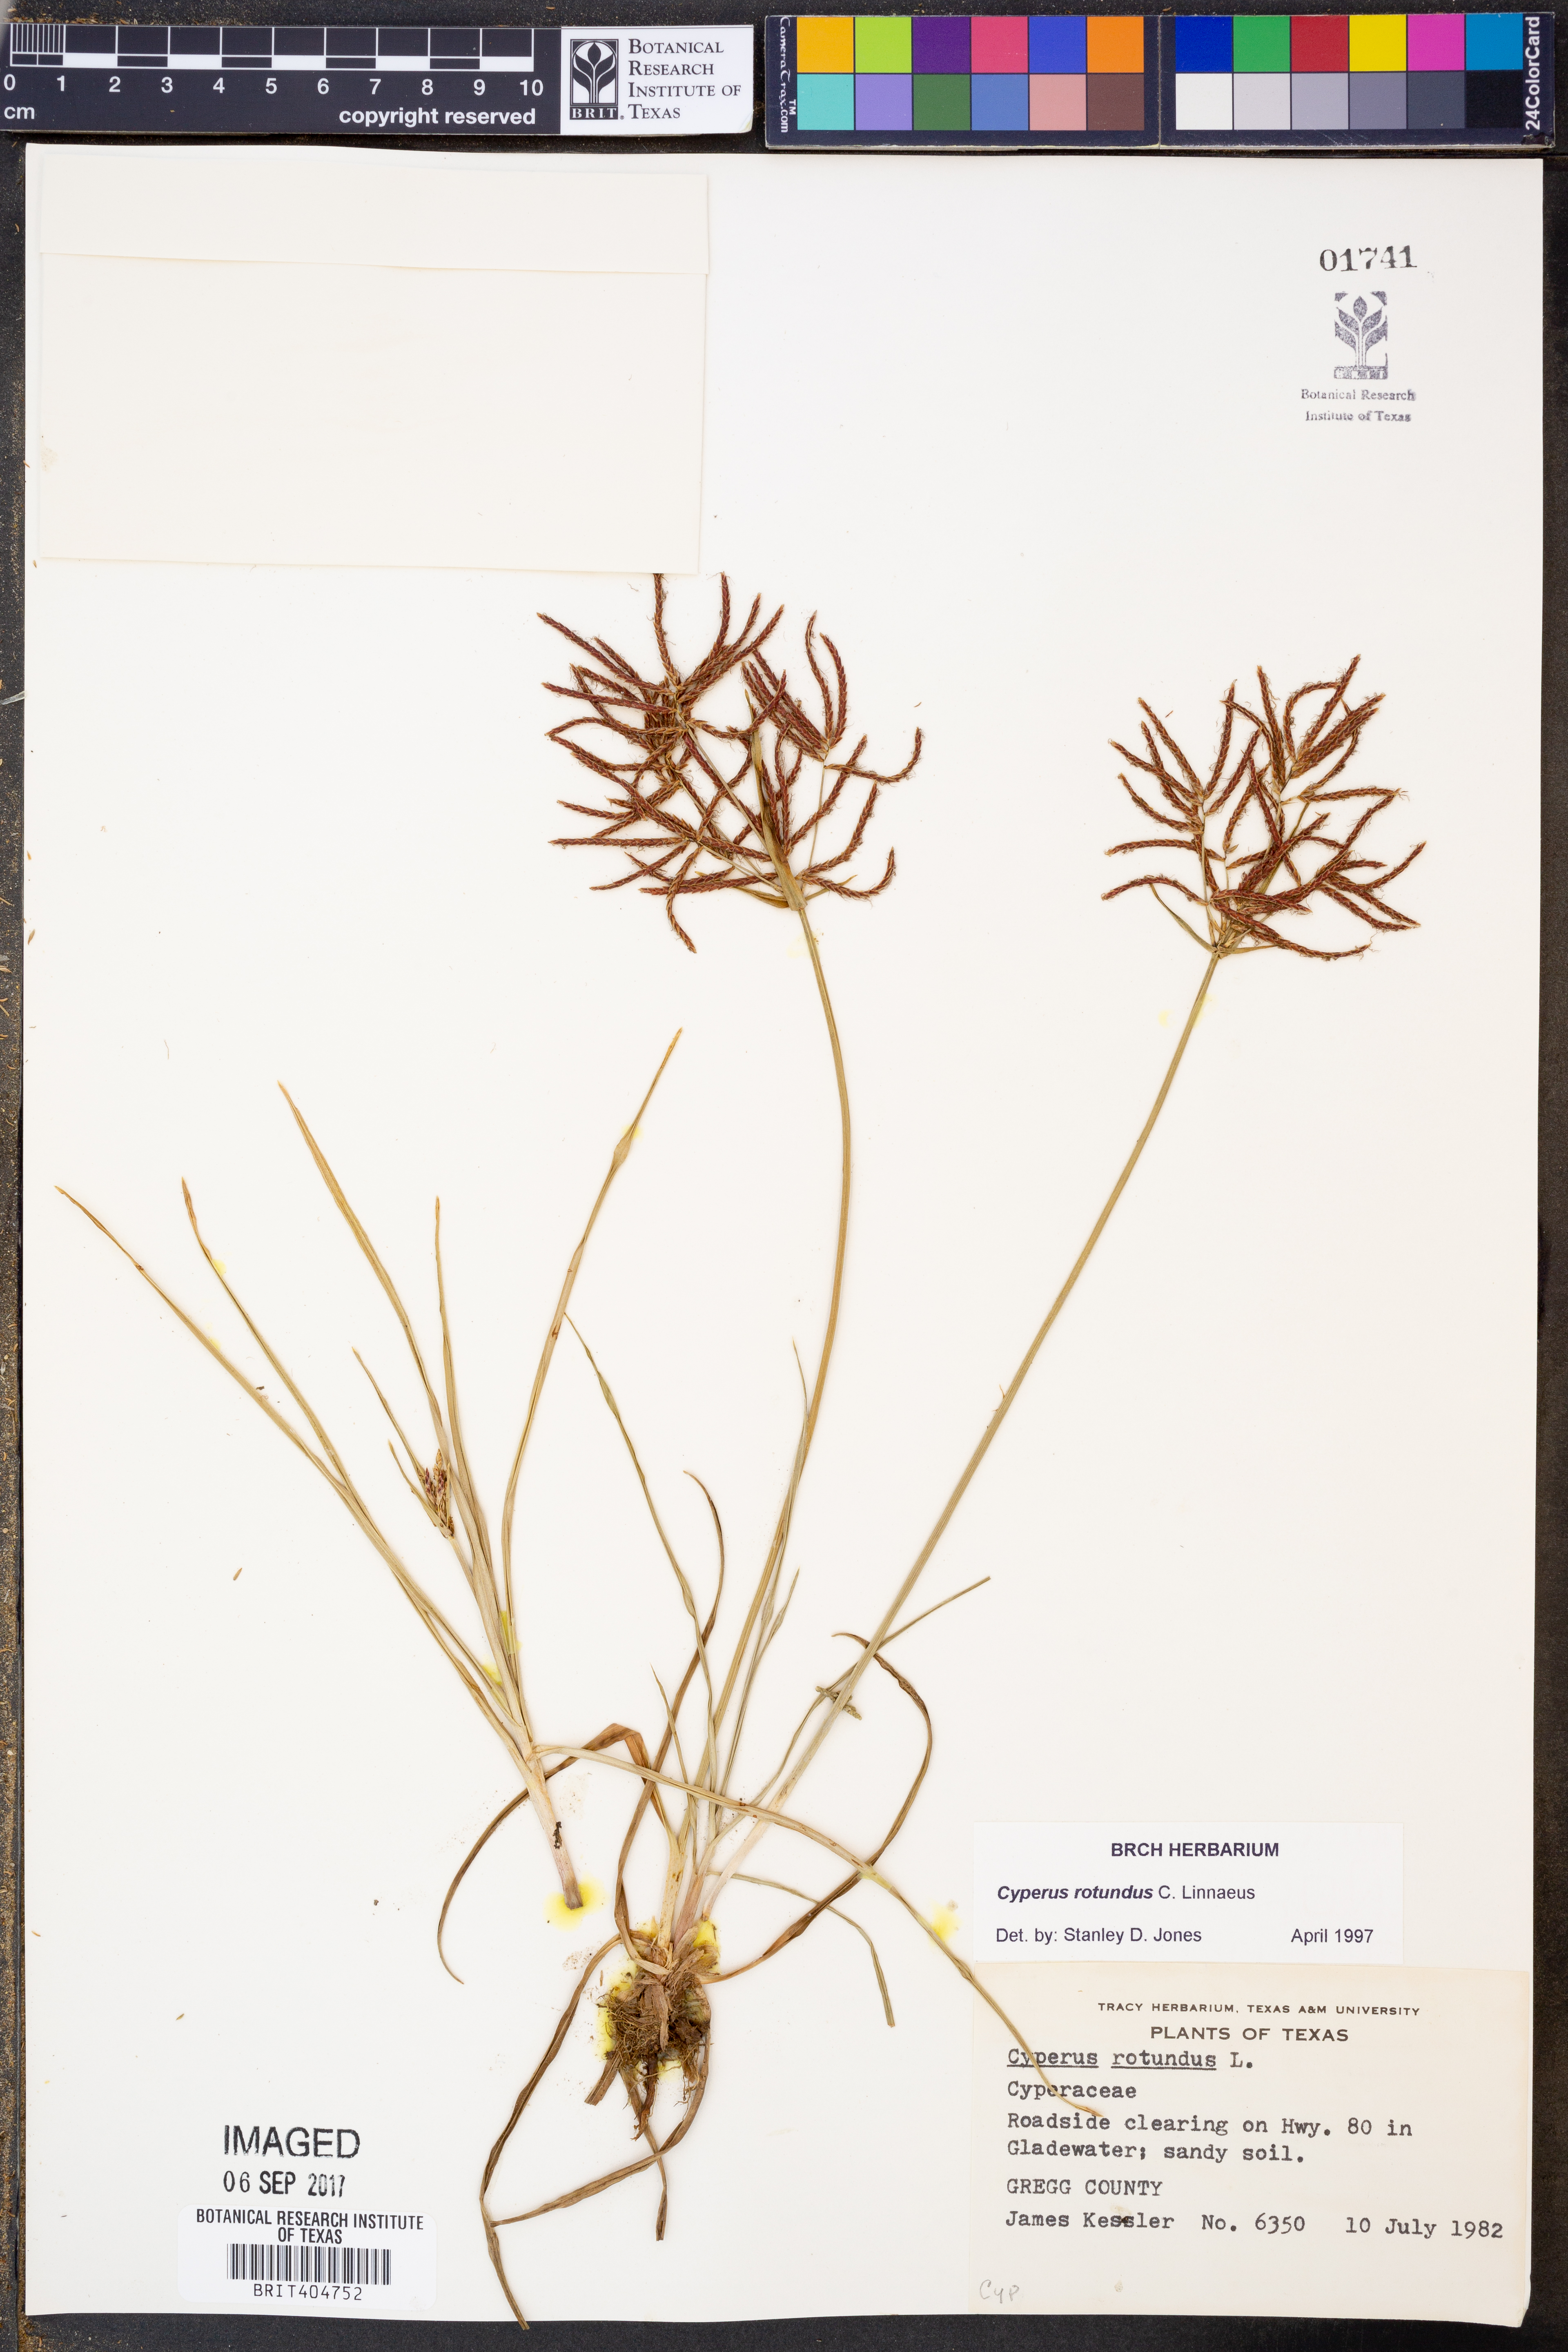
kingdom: Plantae
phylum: Tracheophyta
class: Liliopsida
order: Poales
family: Cyperaceae
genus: Cyperus
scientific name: Cyperus rotundus
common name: Nutgrass
